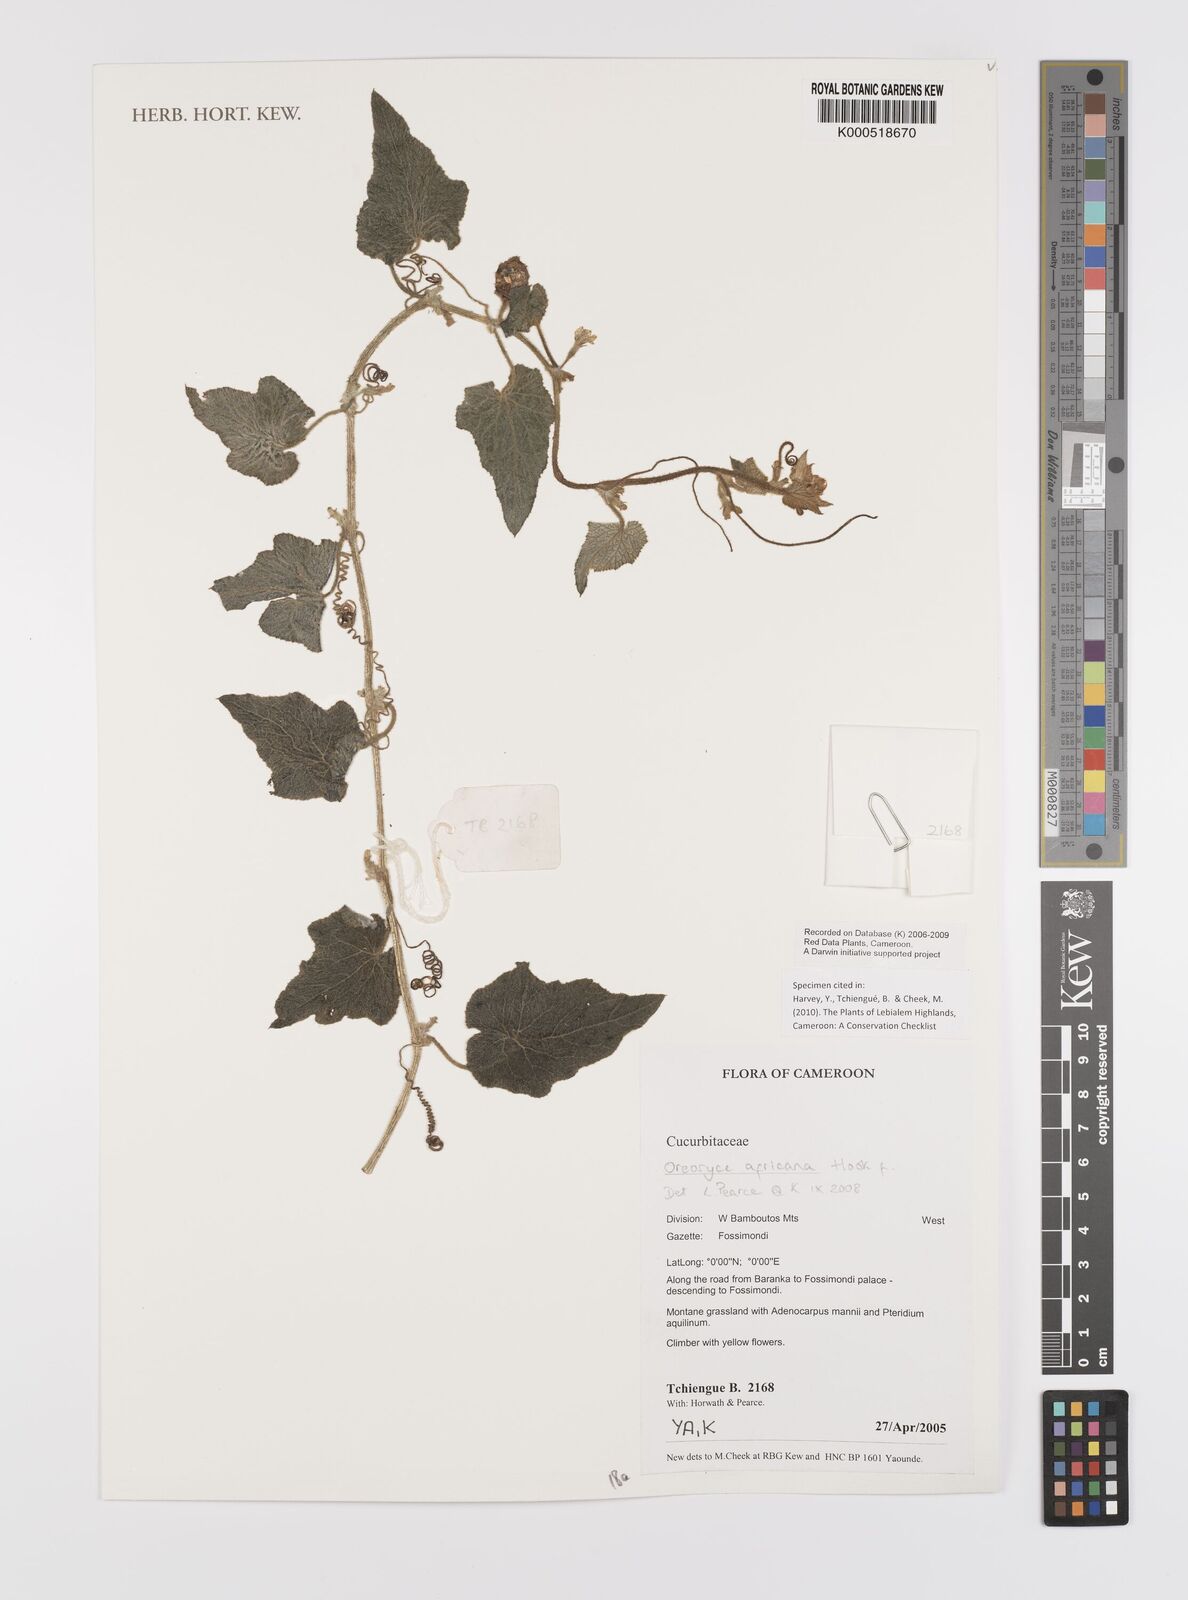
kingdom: Plantae
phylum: Tracheophyta
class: Magnoliopsida
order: Cucurbitales
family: Cucurbitaceae
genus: Cucumis
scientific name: Cucumis oreosyce
